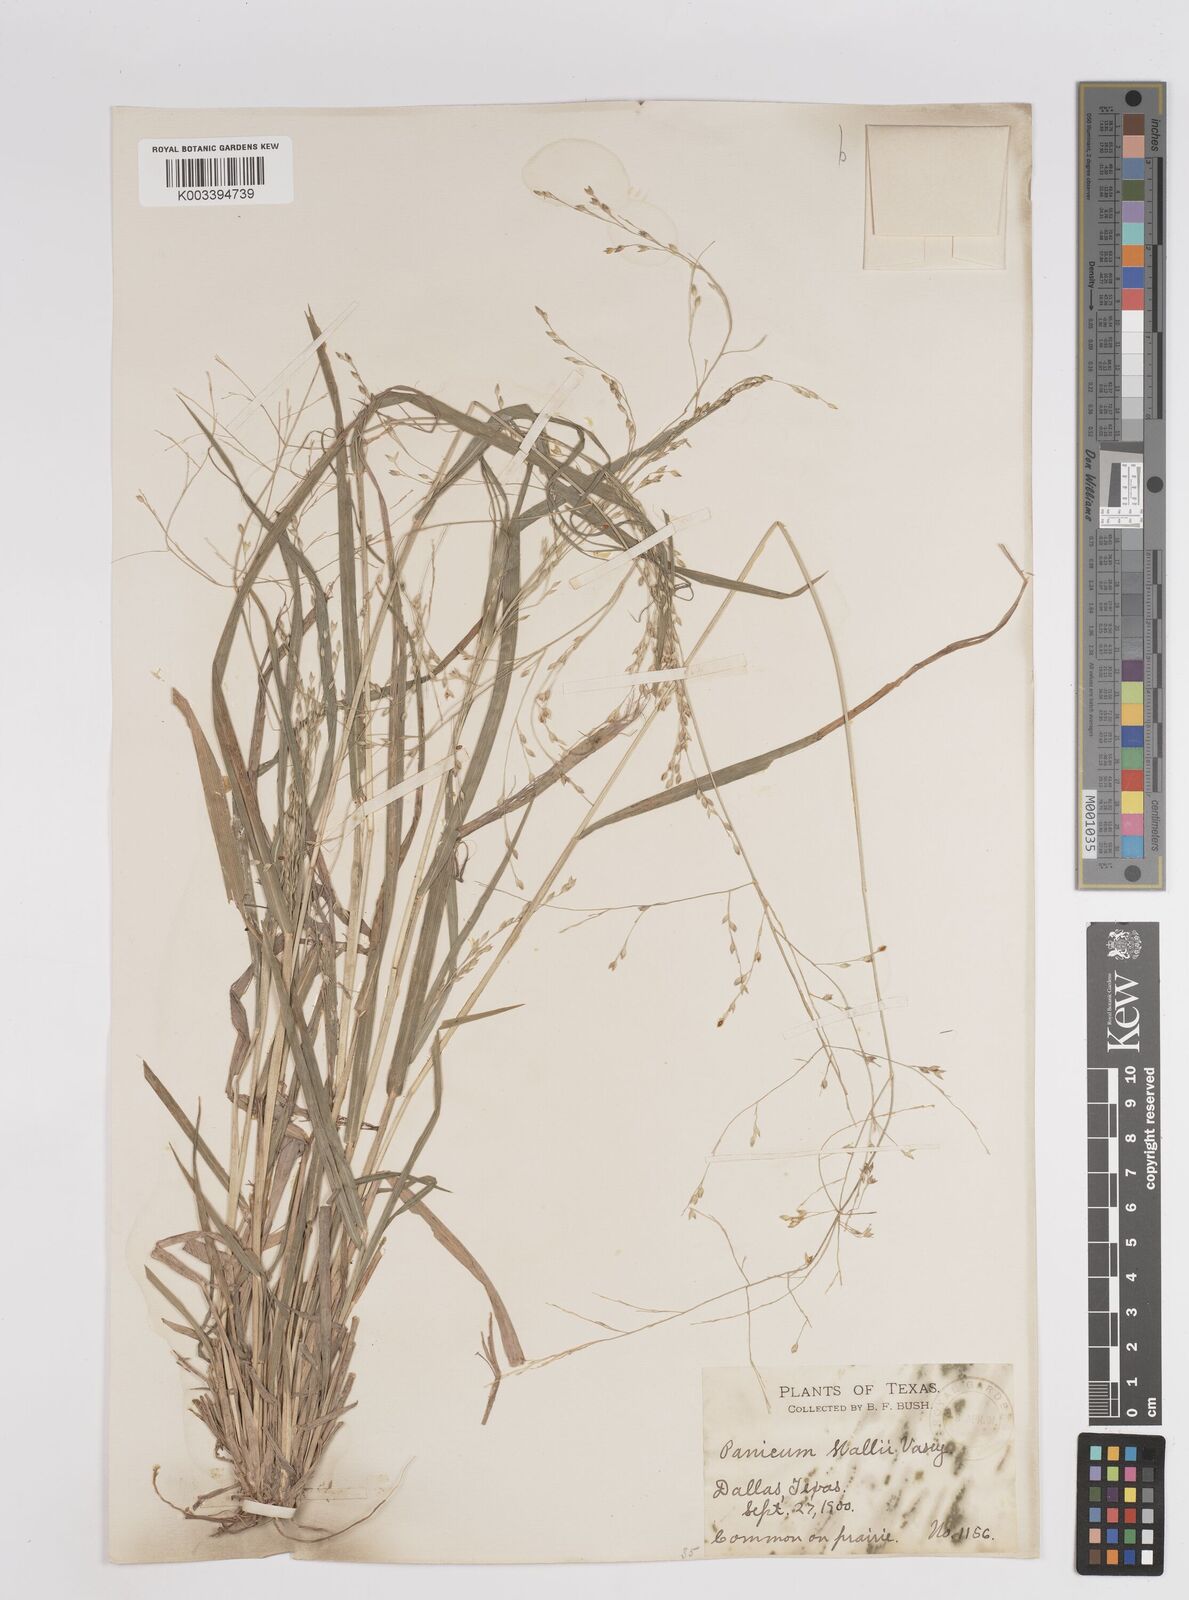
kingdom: Plantae
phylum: Tracheophyta
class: Liliopsida
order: Poales
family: Poaceae
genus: Panicum
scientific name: Panicum hallii
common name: Hall's witchgrass
